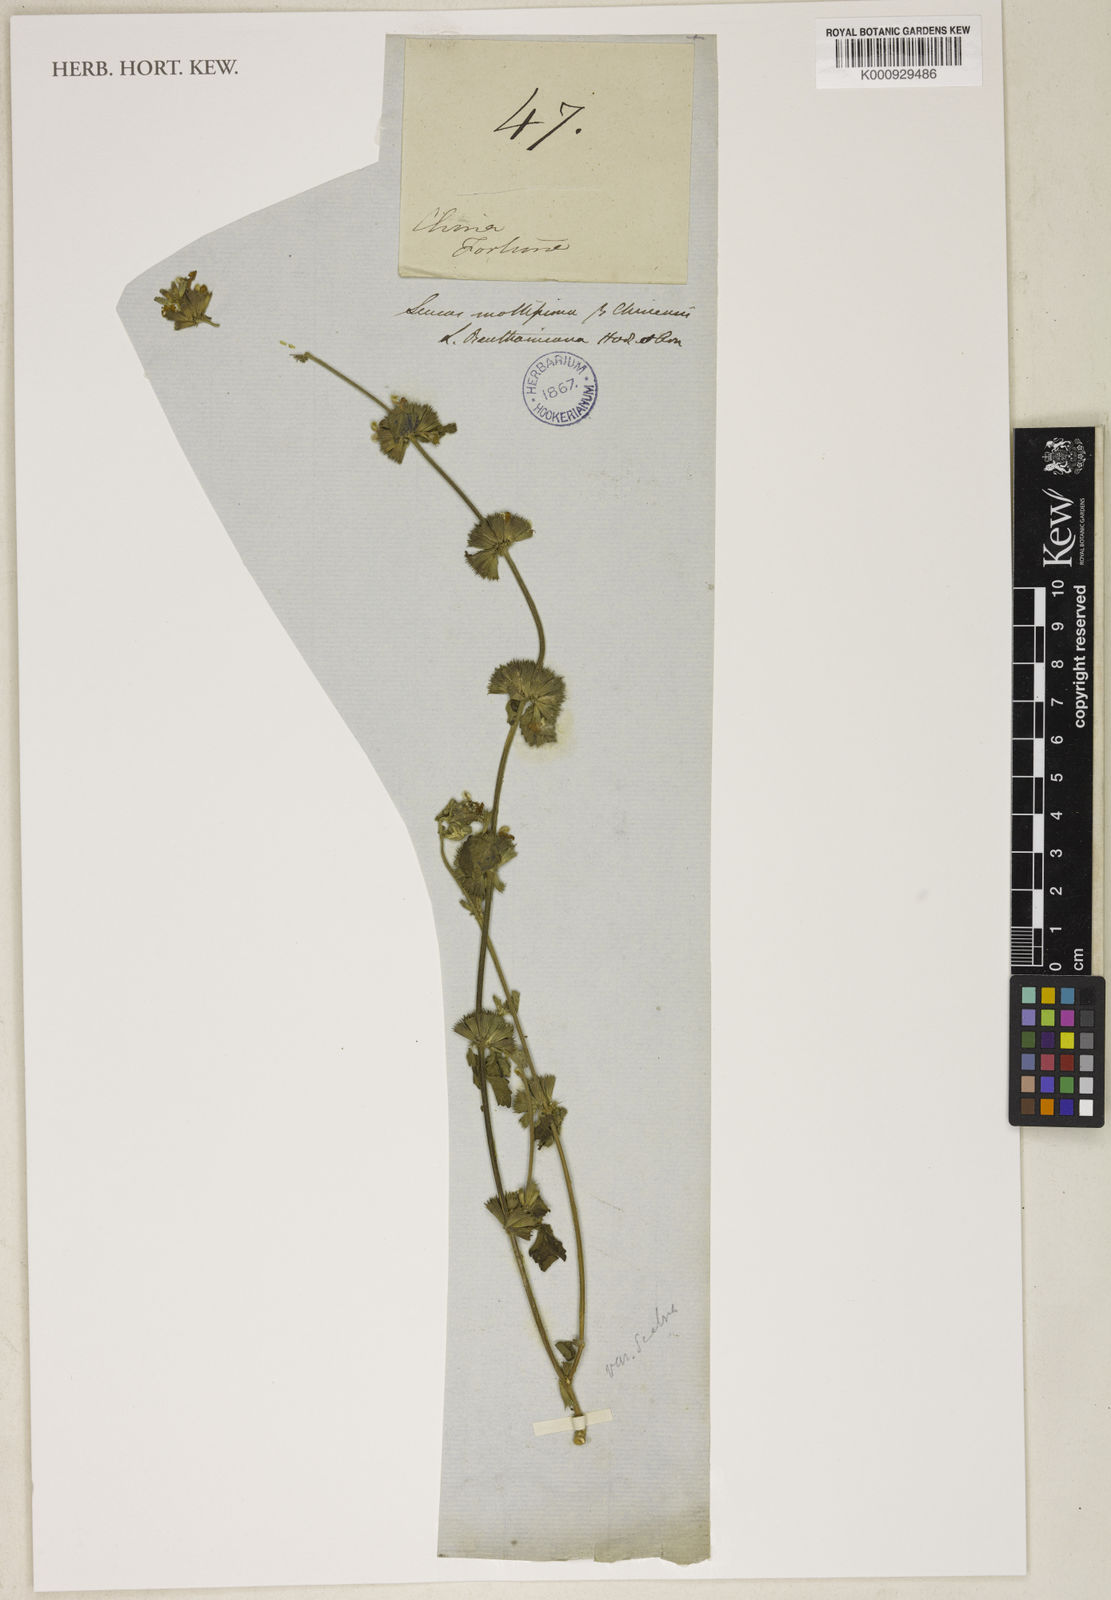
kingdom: Plantae
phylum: Tracheophyta
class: Magnoliopsida
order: Lamiales
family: Lamiaceae
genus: Leucas
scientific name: Leucas chinensis
